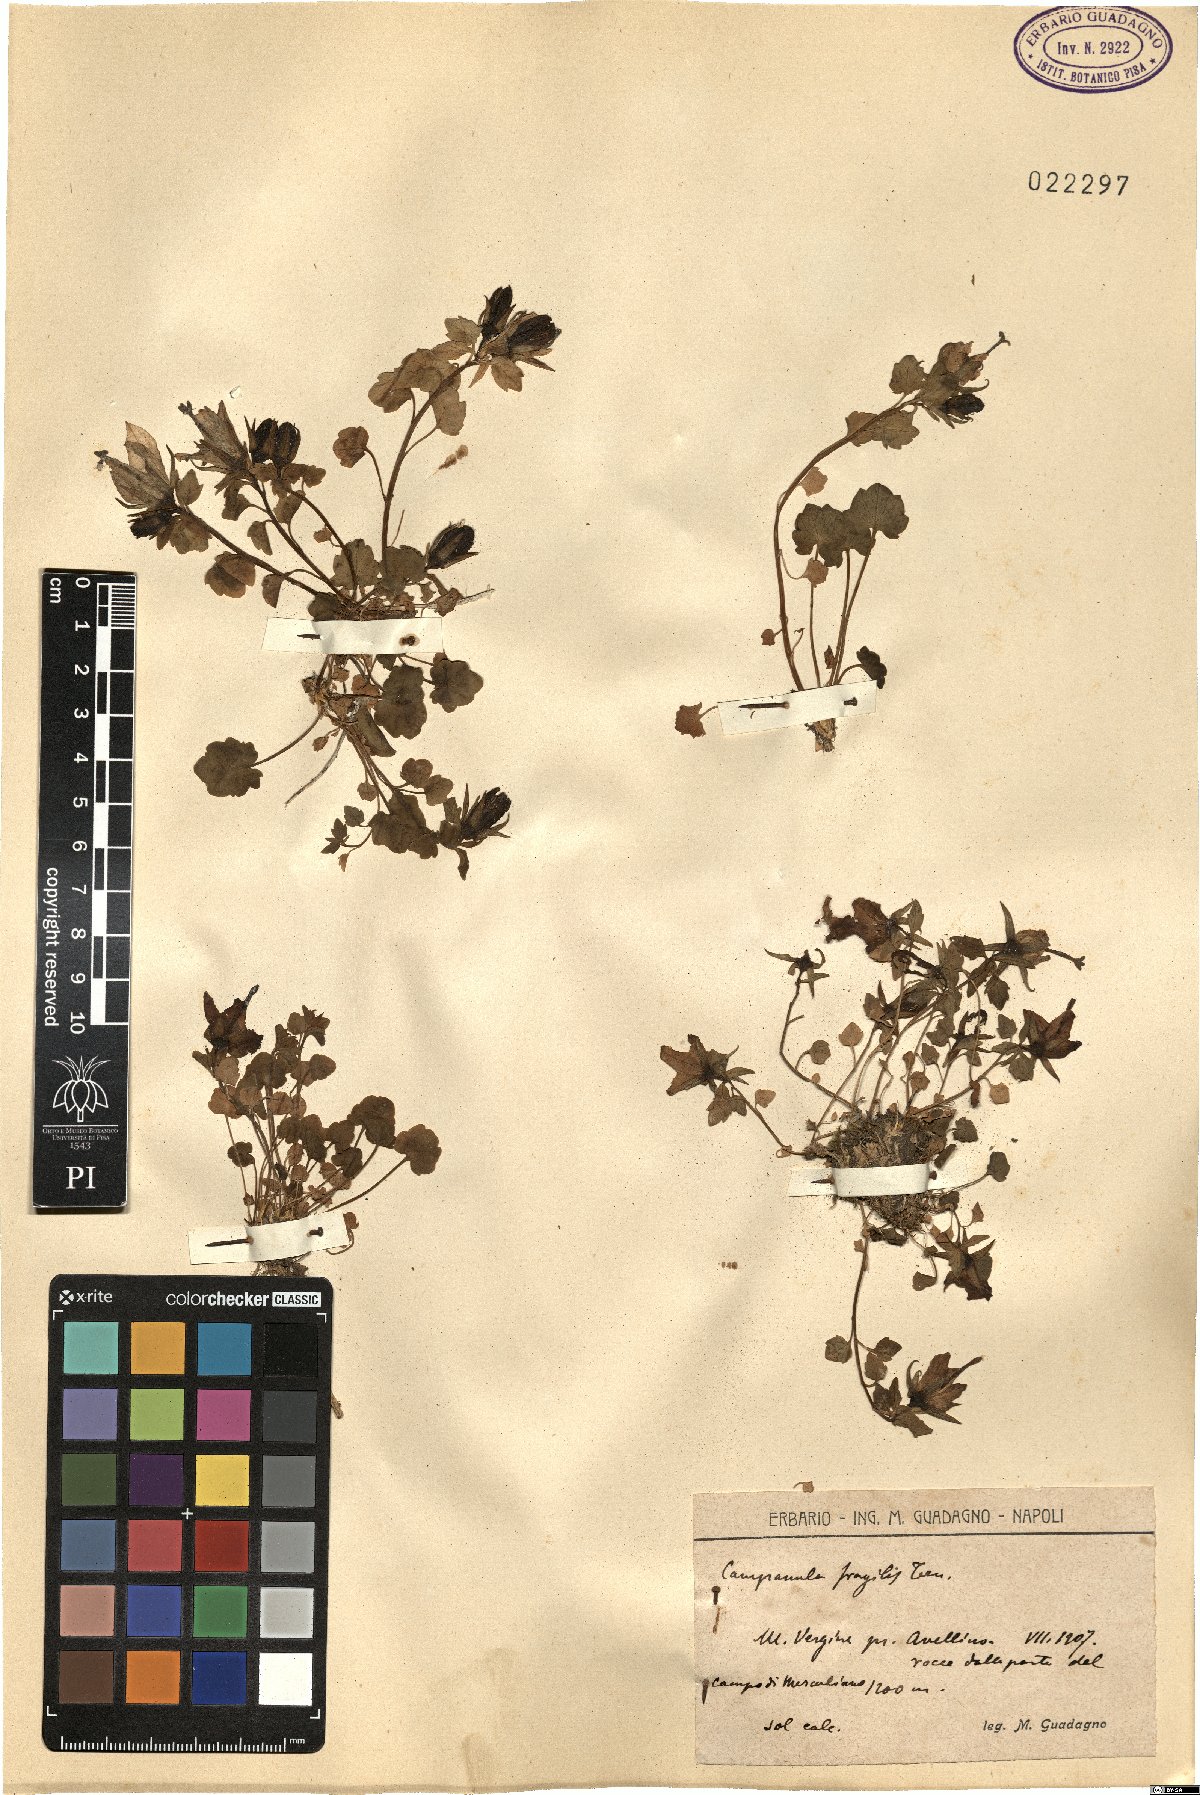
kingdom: Plantae
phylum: Tracheophyta
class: Magnoliopsida
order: Asterales
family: Campanulaceae
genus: Campanula
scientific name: Campanula fragilis
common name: Italian bellflower
